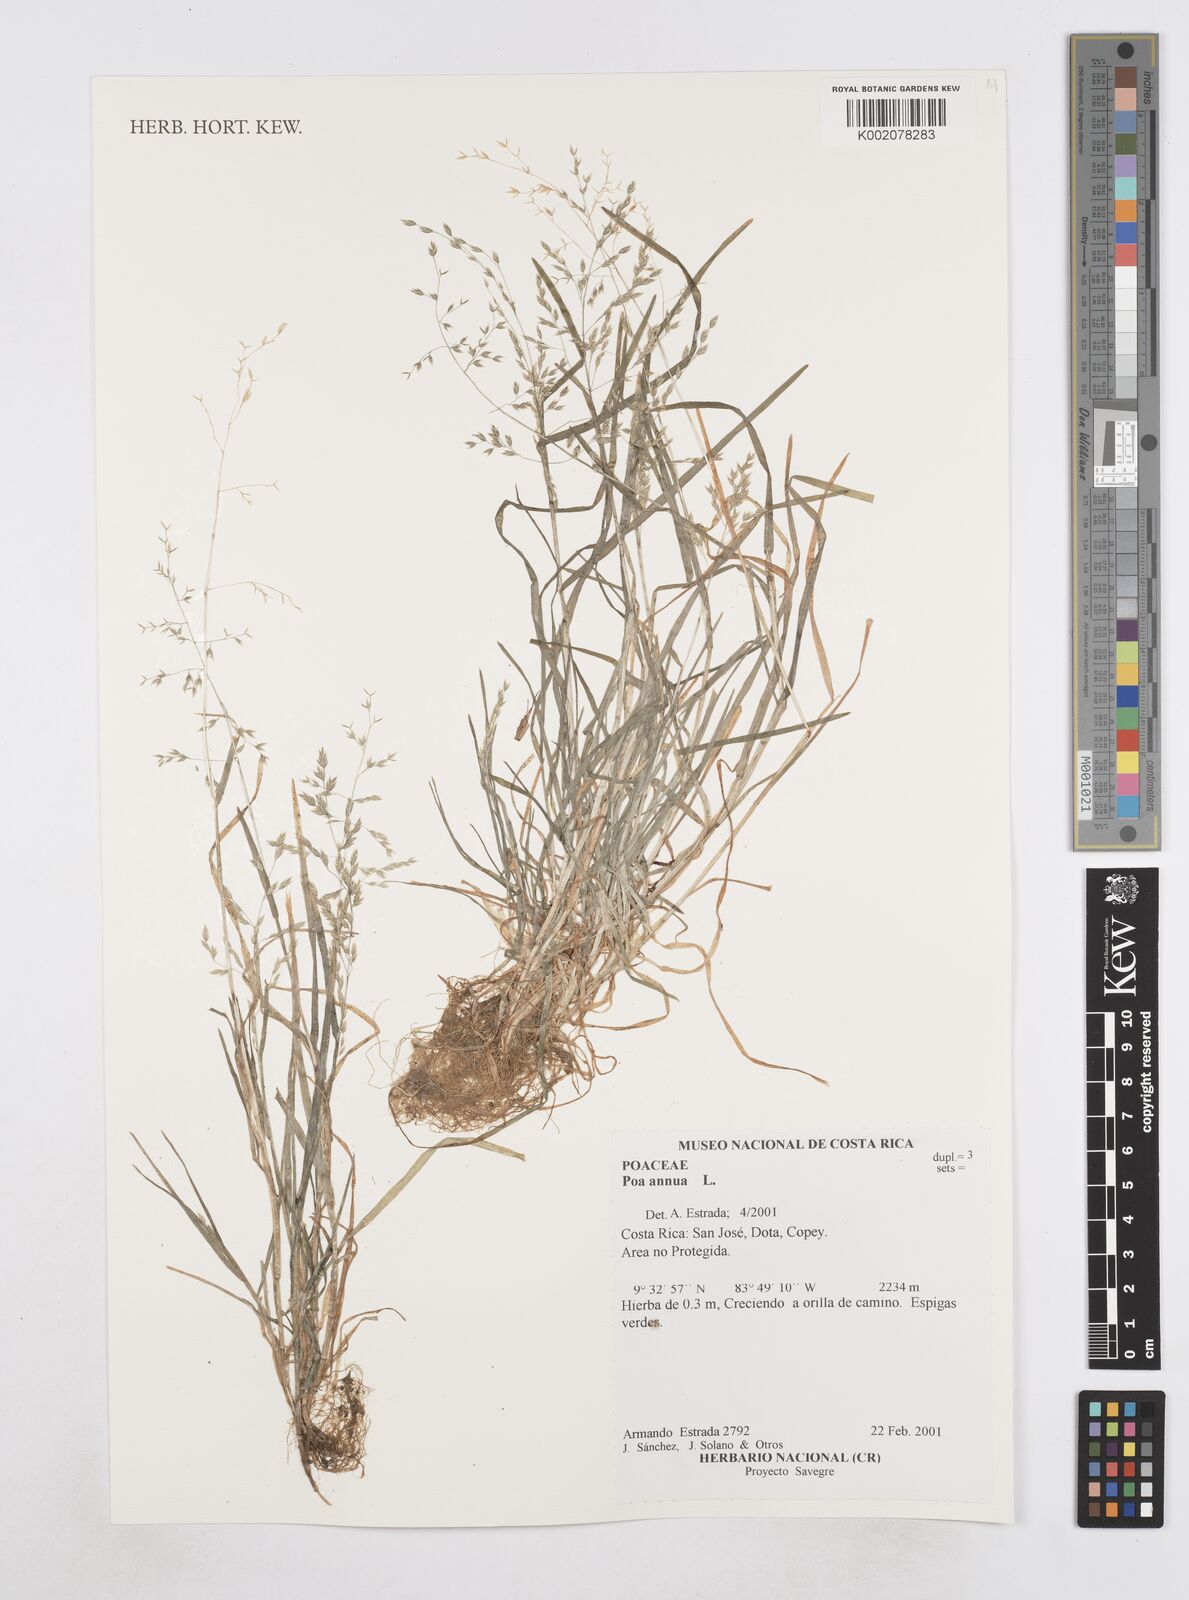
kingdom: Plantae
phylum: Tracheophyta
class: Liliopsida
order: Poales
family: Poaceae
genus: Poa
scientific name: Poa annua
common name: Annual bluegrass
